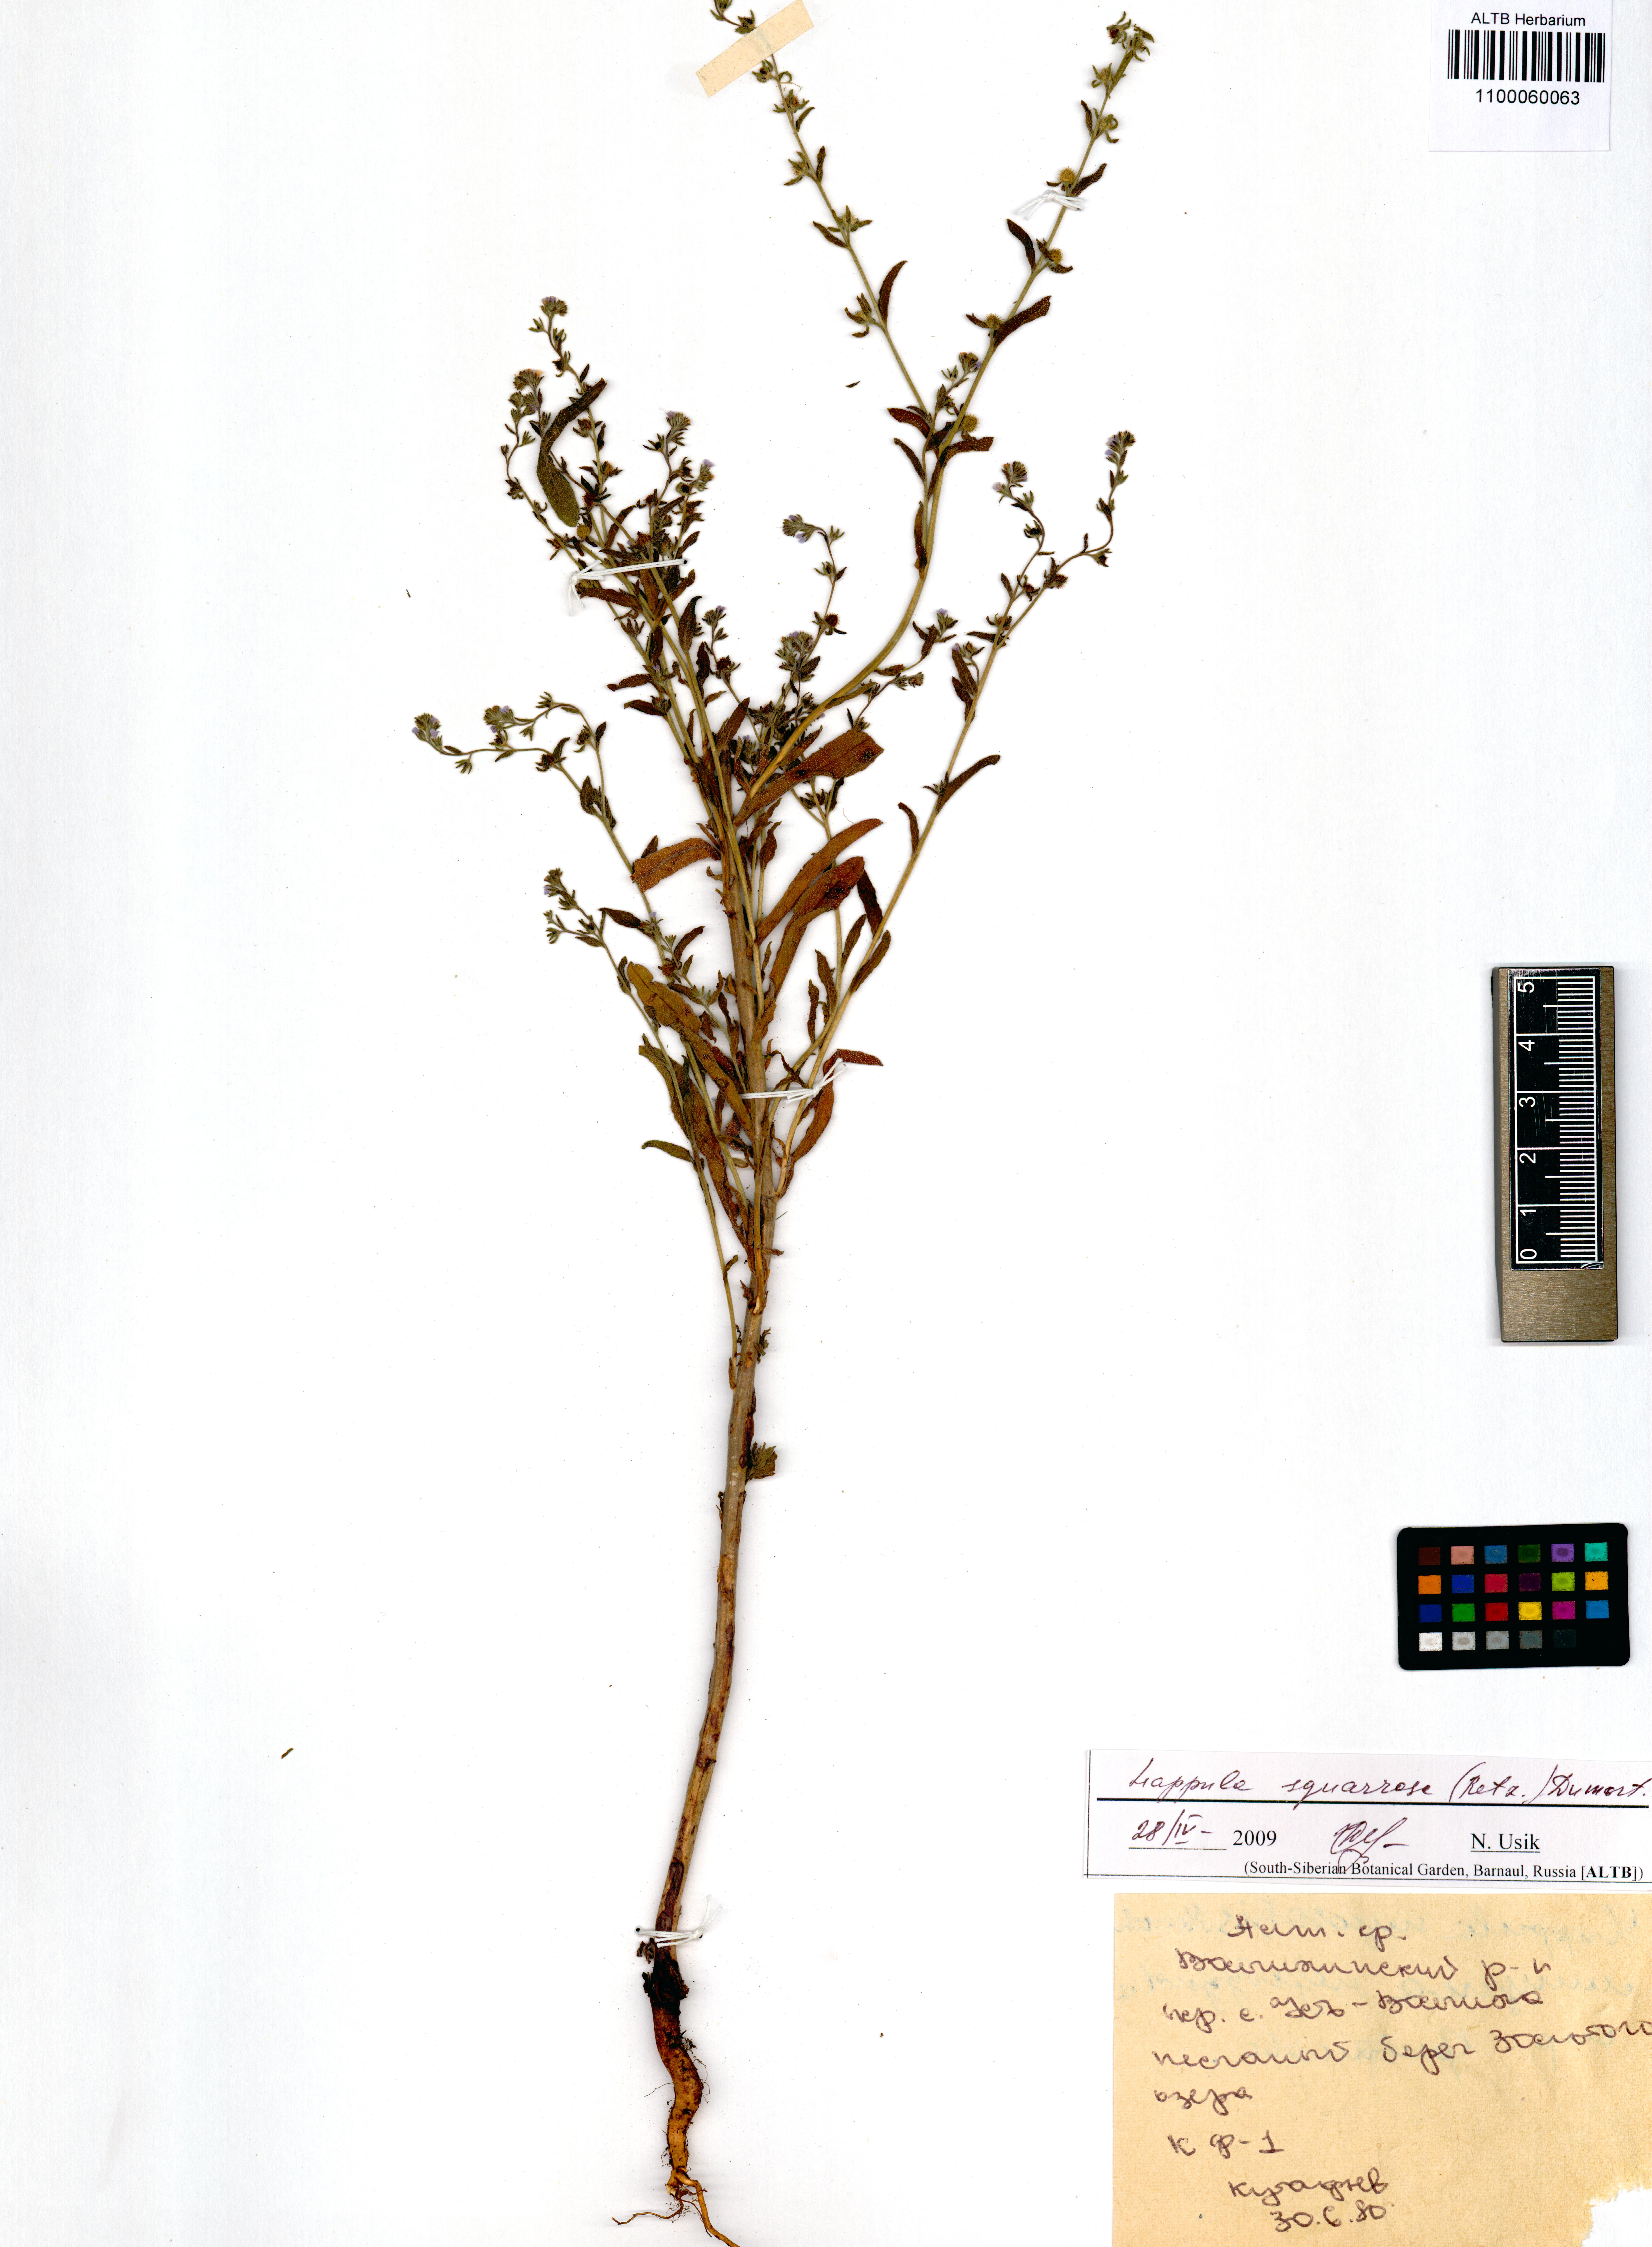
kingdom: Plantae
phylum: Tracheophyta
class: Magnoliopsida
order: Boraginales
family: Boraginaceae
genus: Lappula
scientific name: Lappula squarrosa
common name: European stickseed
